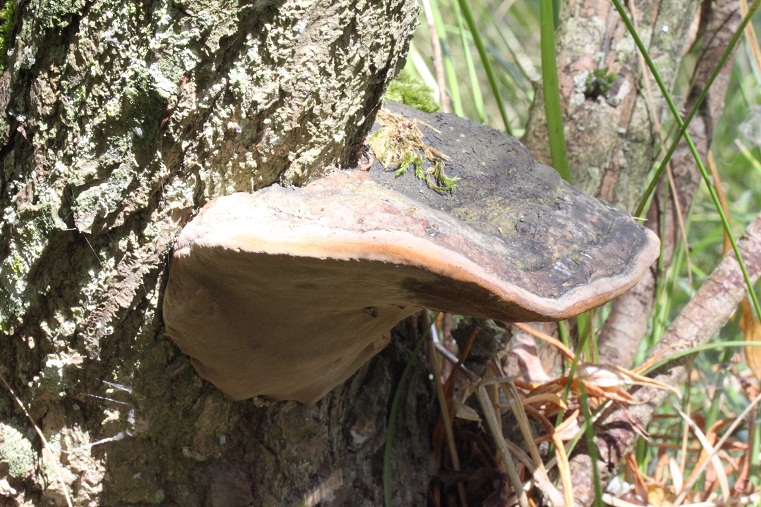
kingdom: Fungi
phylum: Basidiomycota
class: Agaricomycetes
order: Hymenochaetales
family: Hymenochaetaceae
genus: Phellinus
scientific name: Phellinus igniarius
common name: almindelig ildporesvamp
